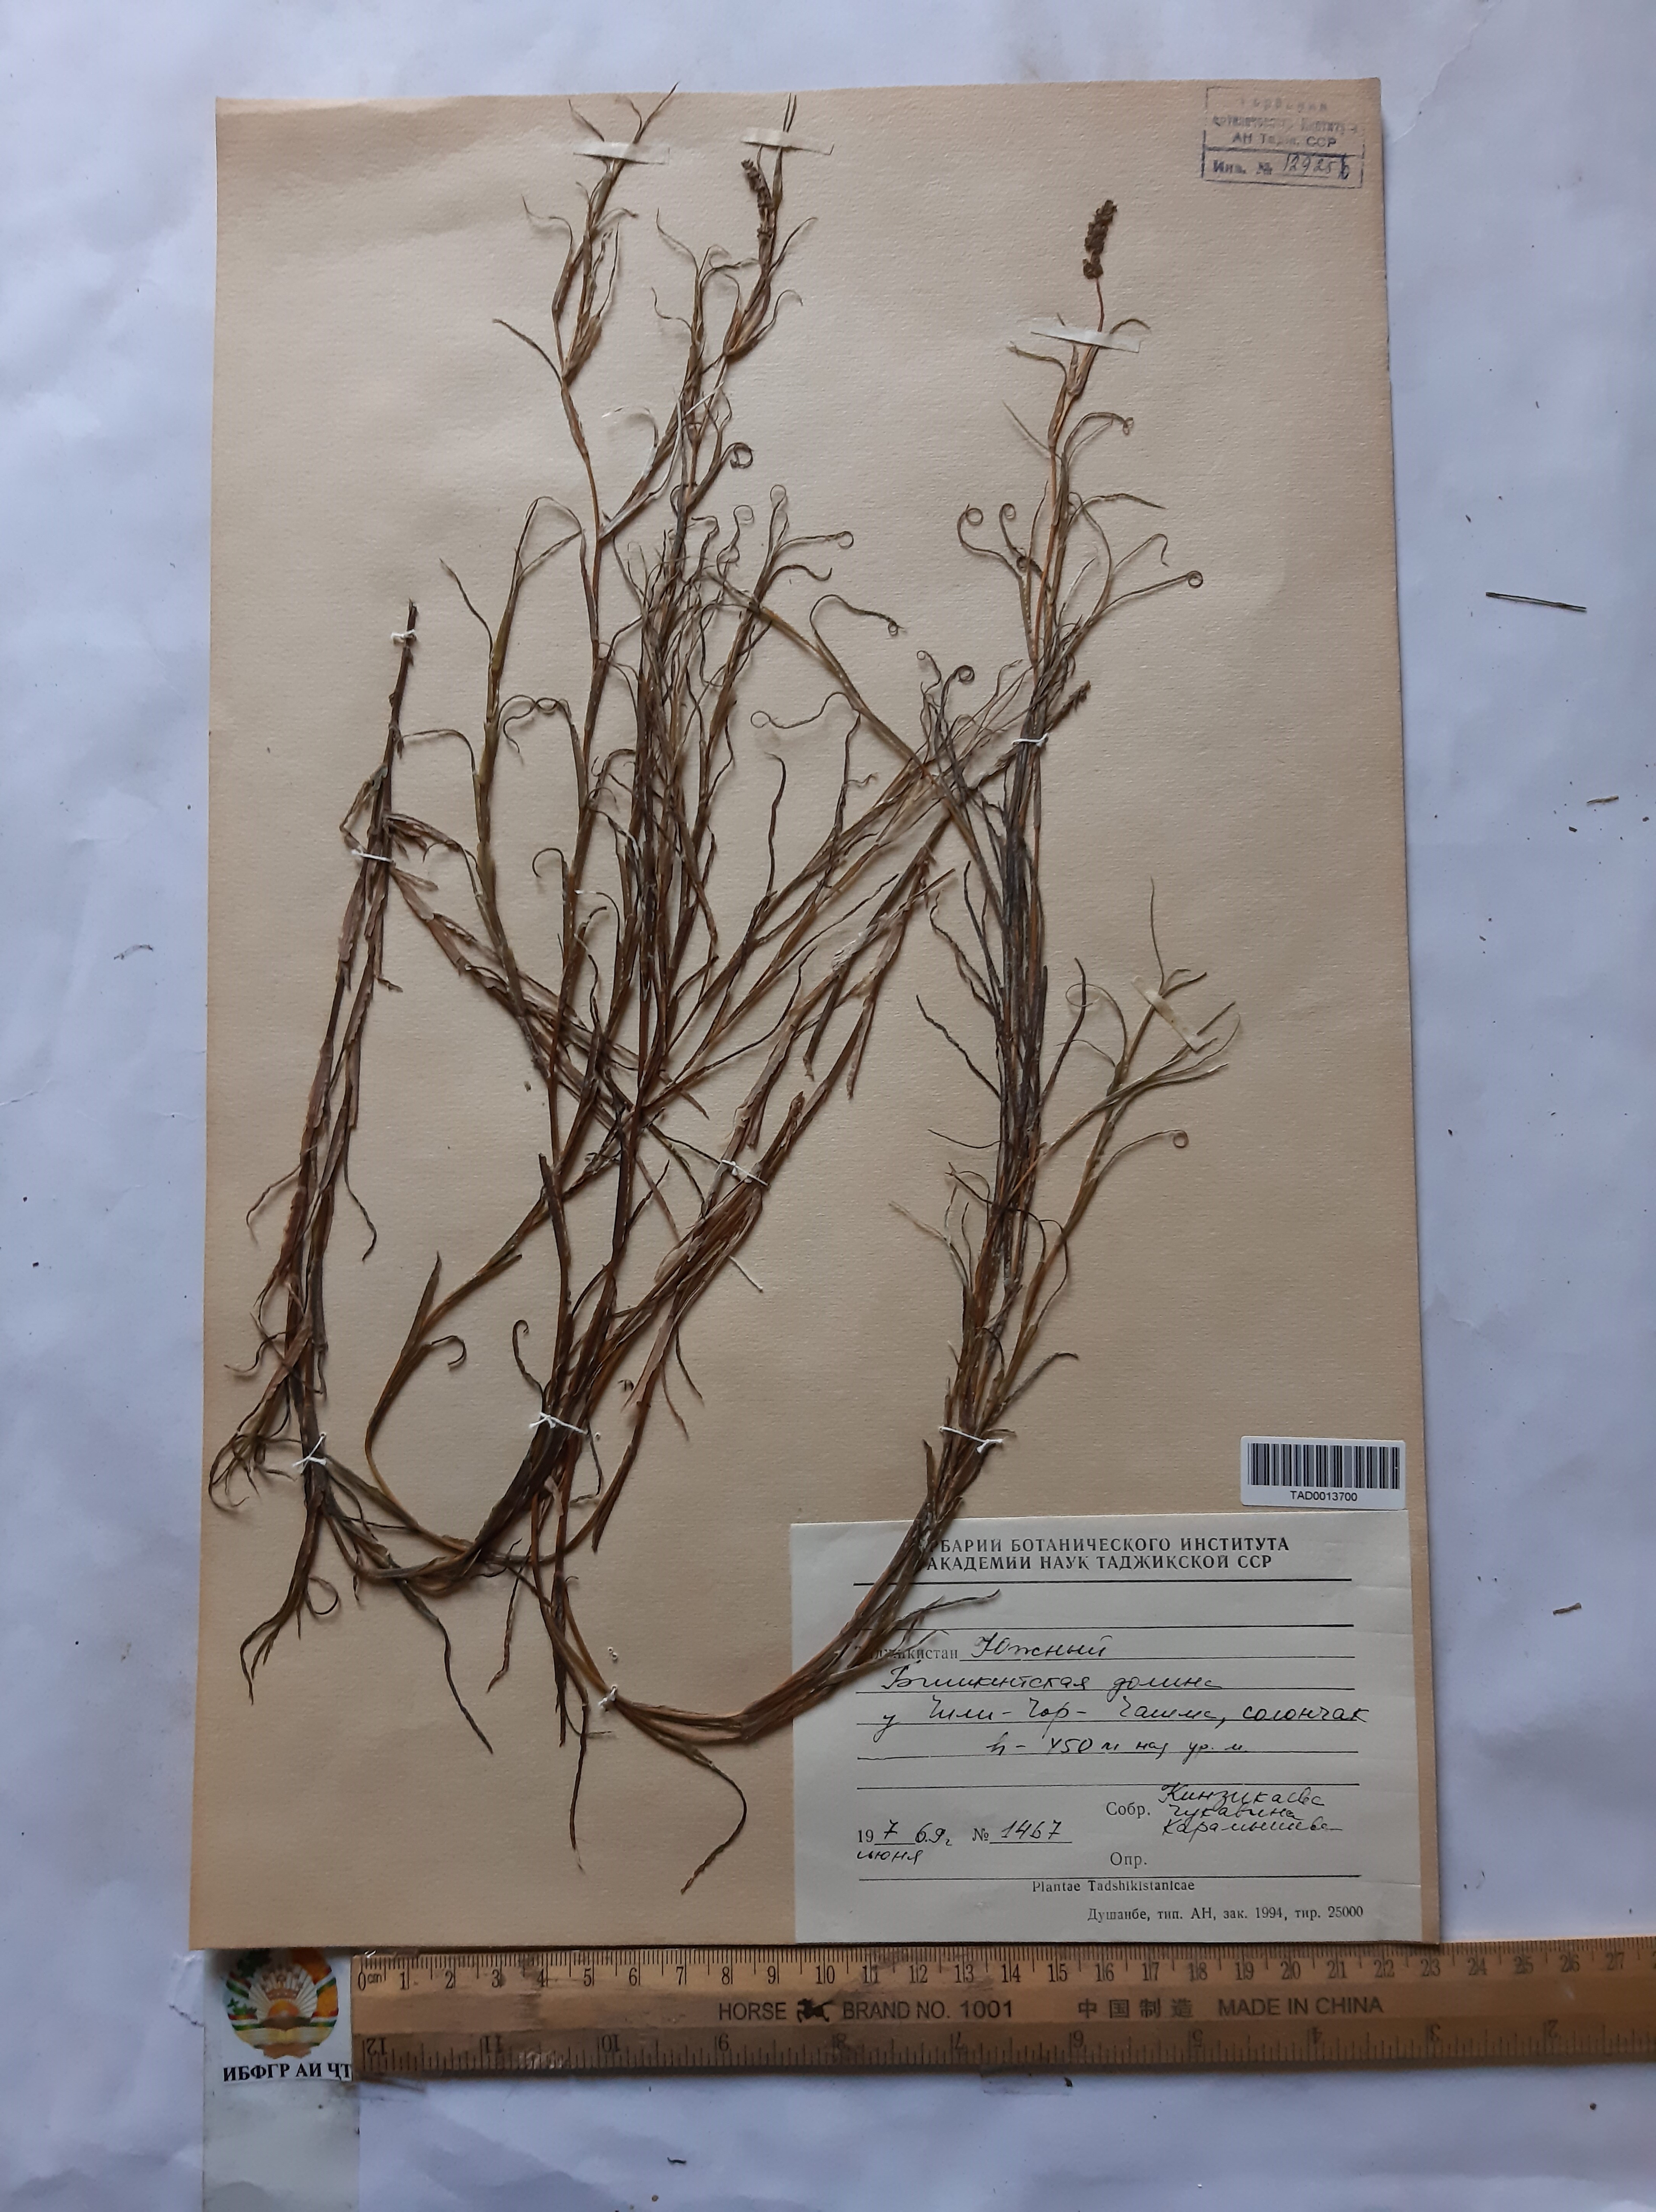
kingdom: Plantae
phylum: Tracheophyta
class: Liliopsida
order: Alismatales
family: Potamogetonaceae
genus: Potamogeton
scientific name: Potamogeton crispus
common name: Curled pondweed
